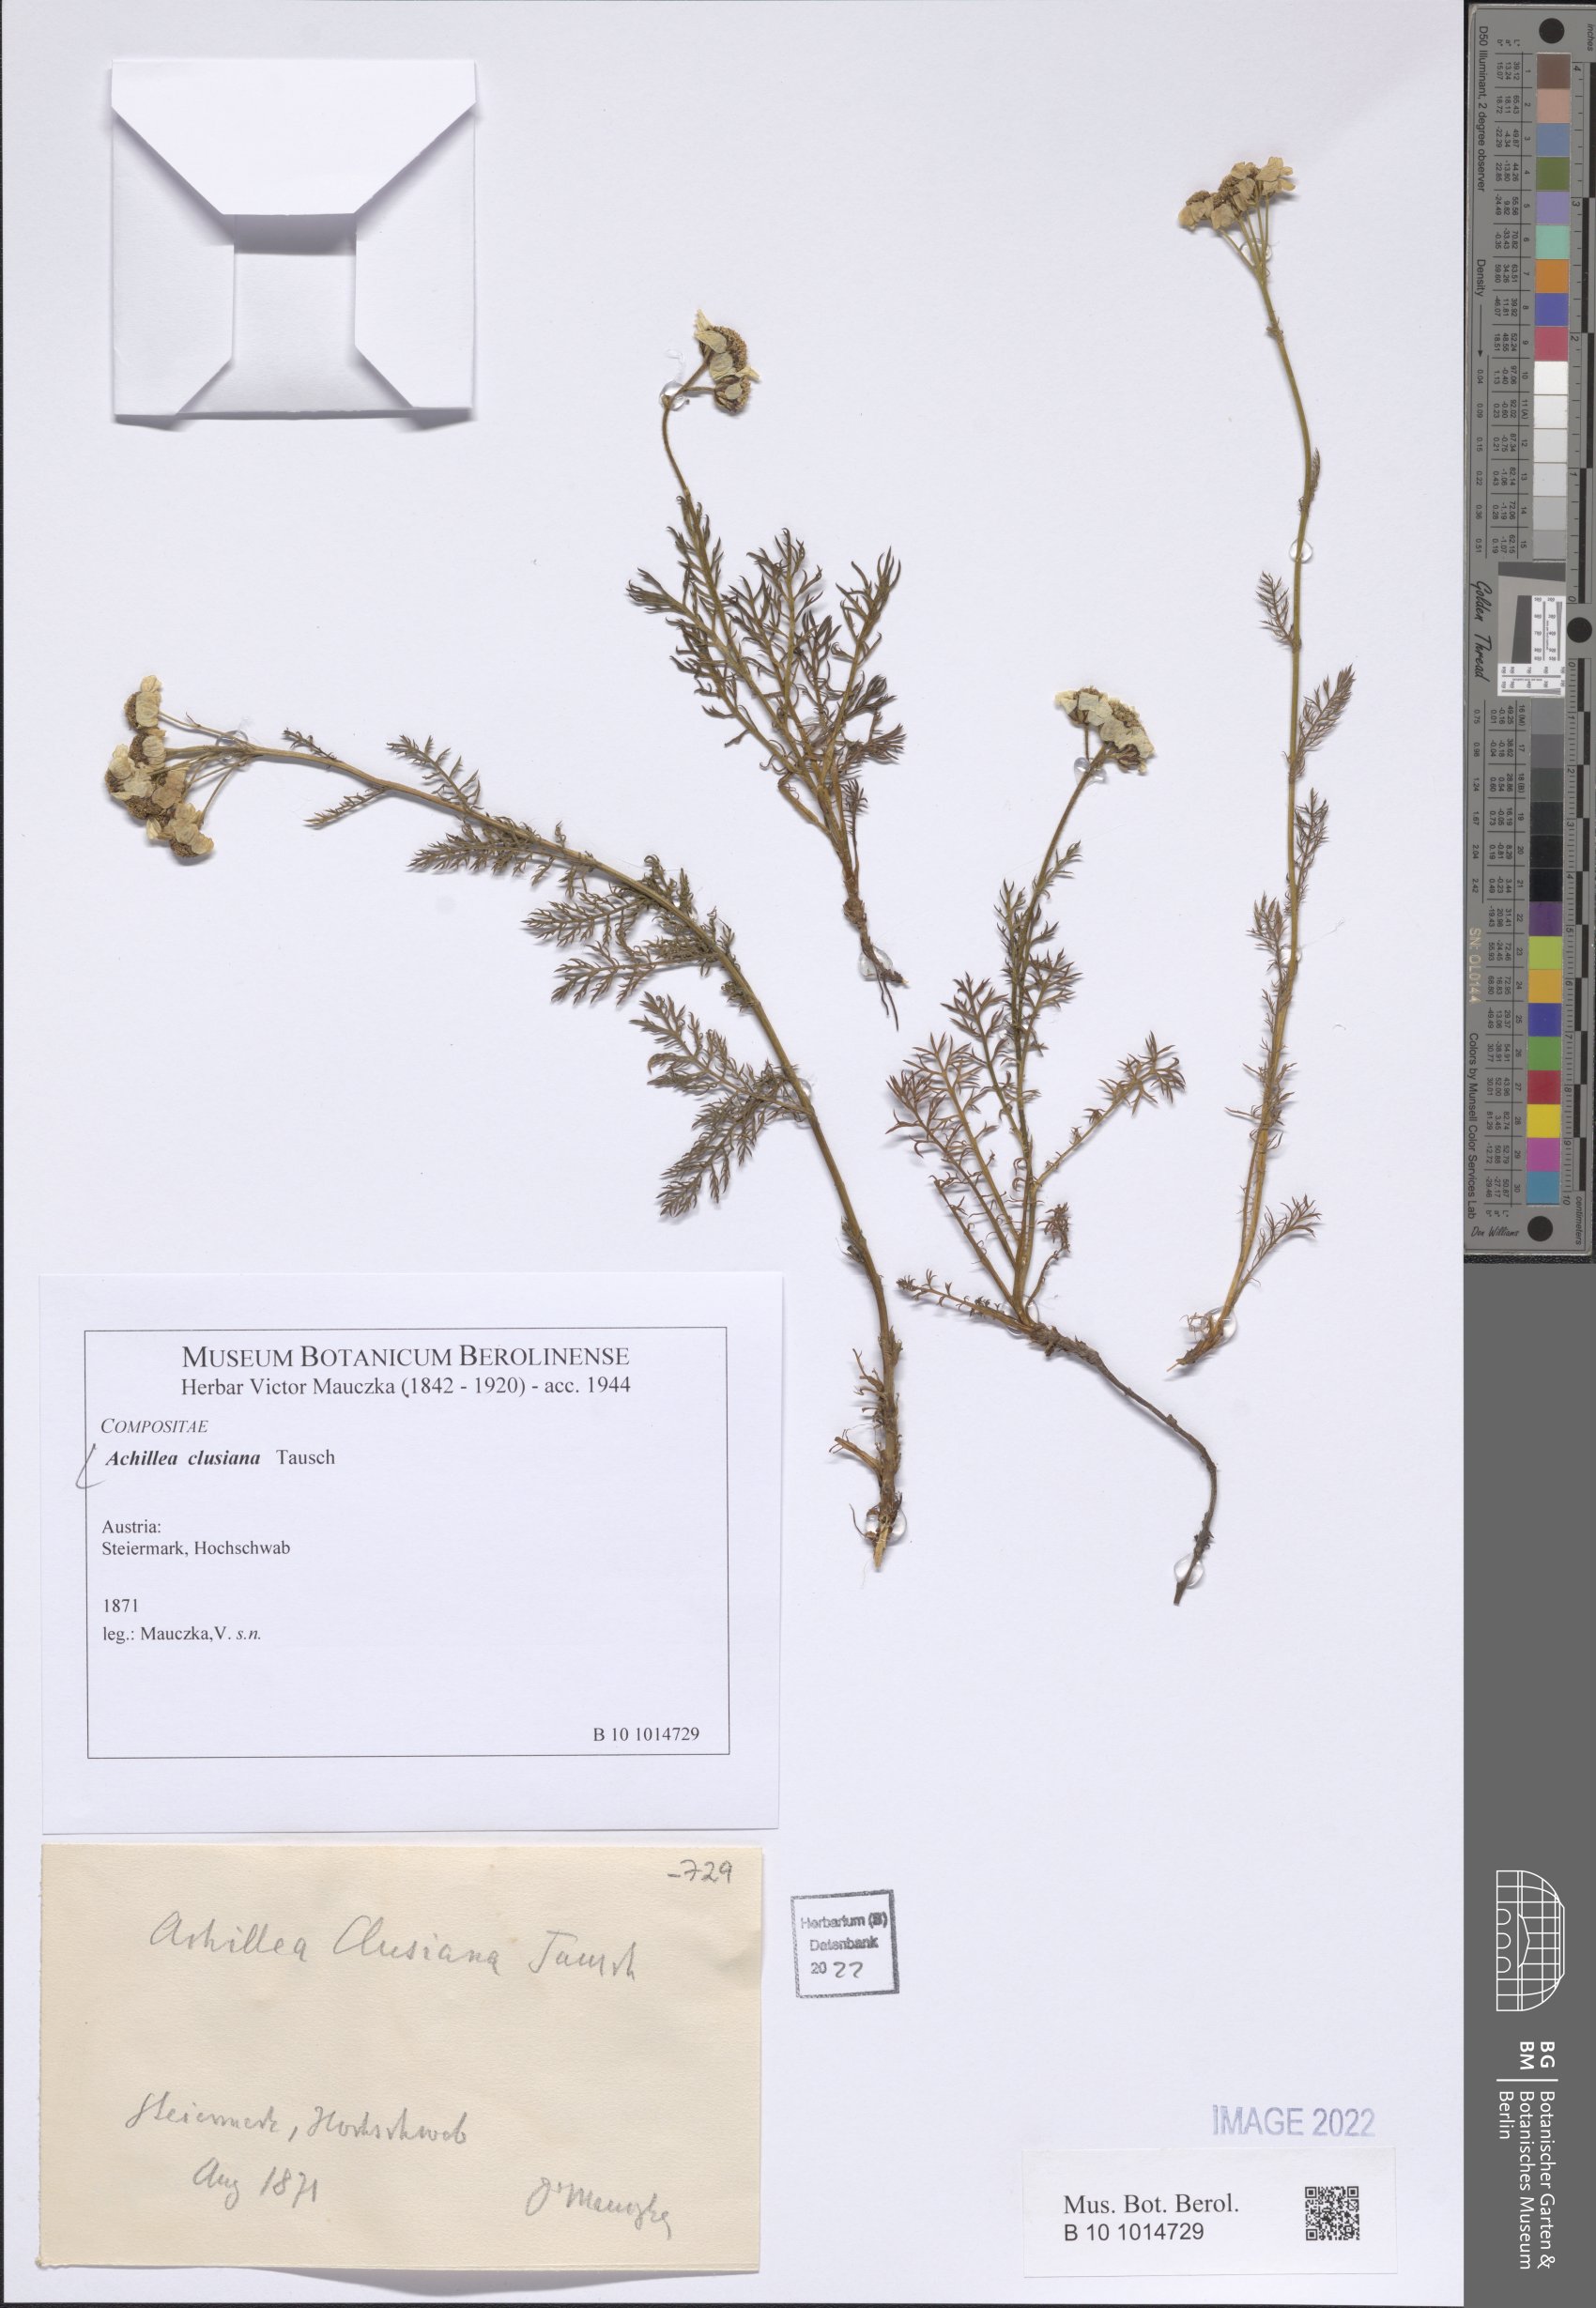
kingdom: Plantae
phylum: Tracheophyta
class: Magnoliopsida
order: Asterales
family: Asteraceae
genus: Achillea
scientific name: Achillea clusiana
